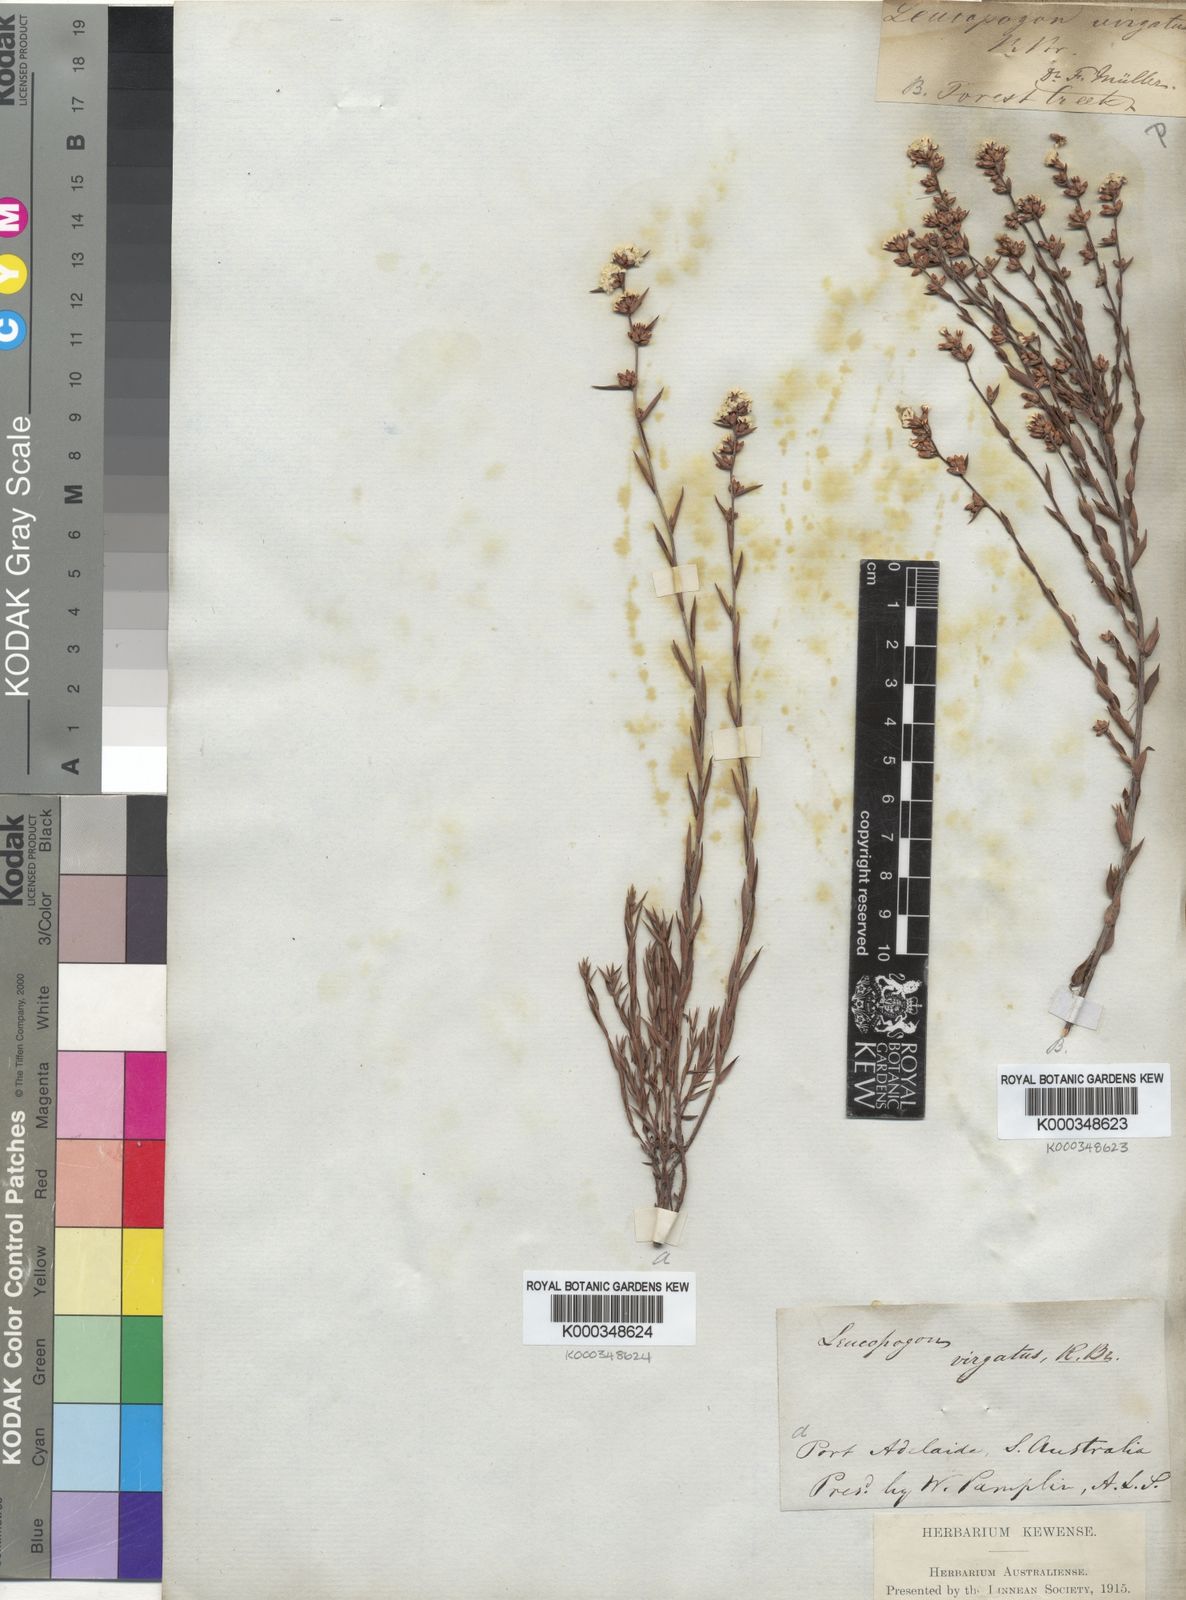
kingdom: Plantae
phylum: Tracheophyta
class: Magnoliopsida
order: Ericales
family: Ericaceae
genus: Leucopogon
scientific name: Leucopogon virgatus
